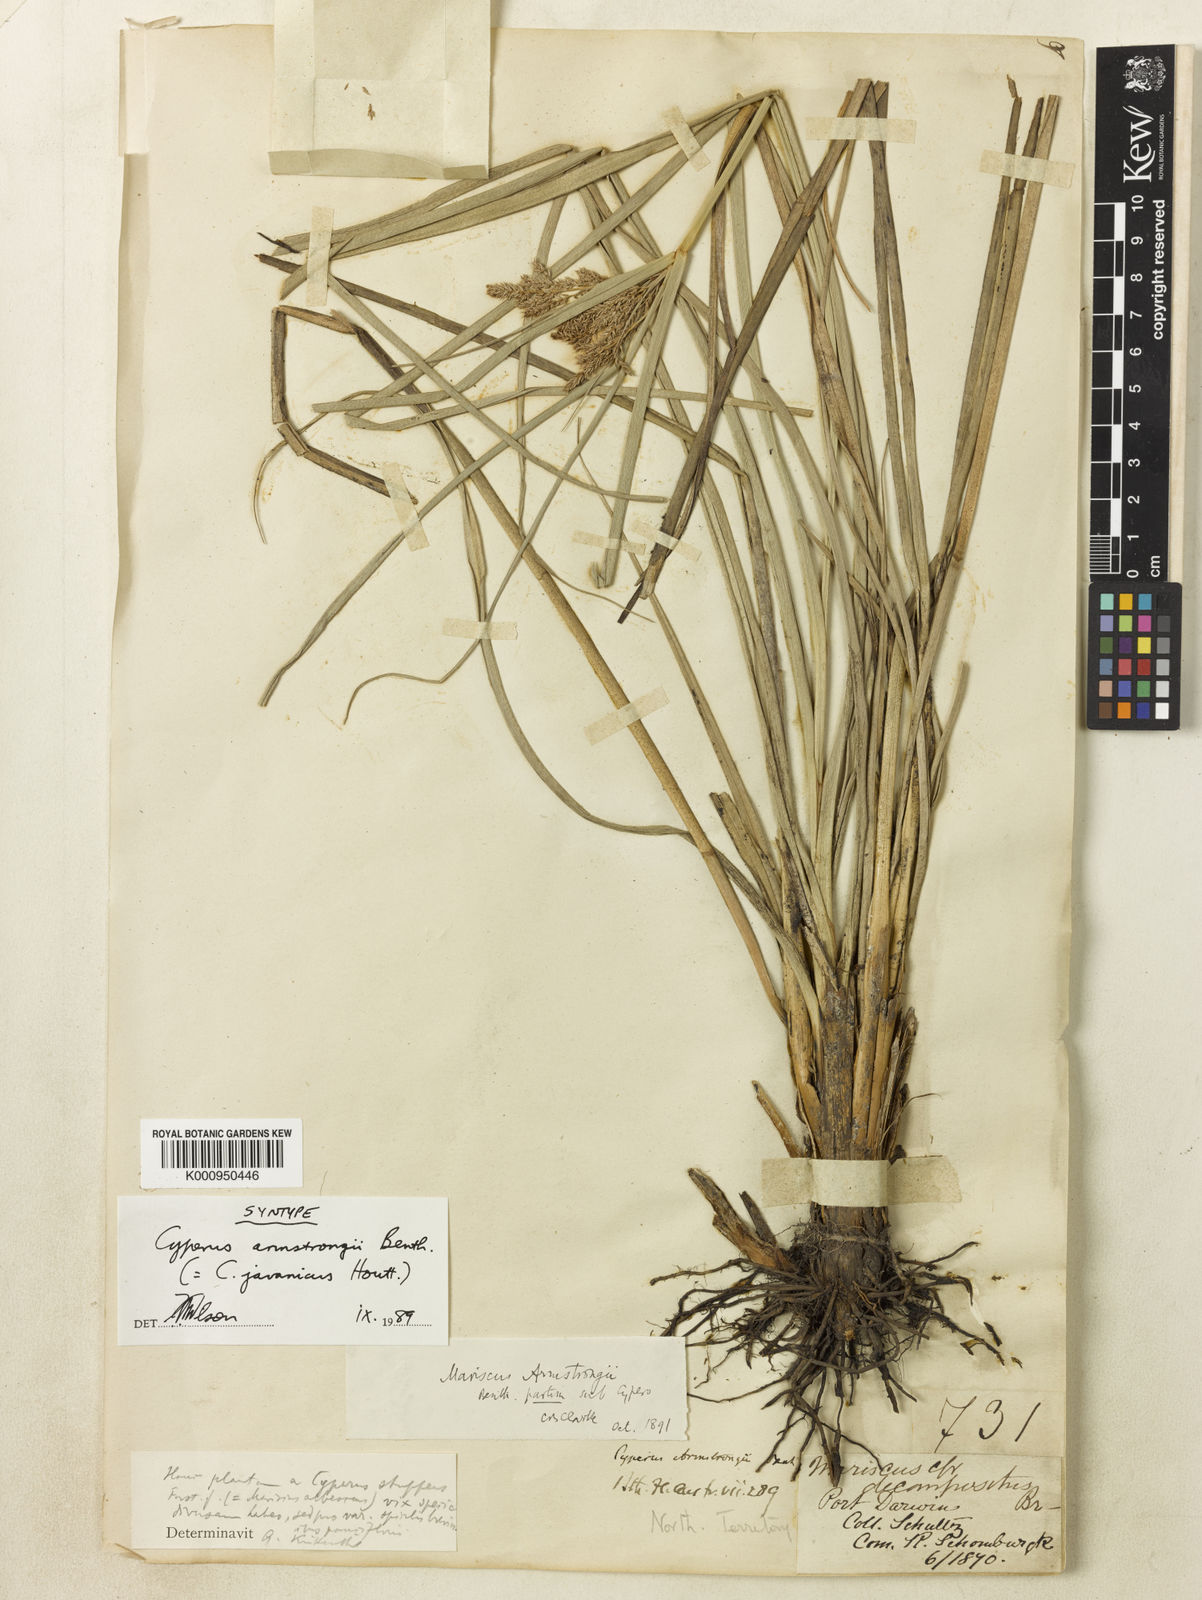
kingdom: Plantae
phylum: Tracheophyta
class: Liliopsida
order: Poales
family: Cyperaceae
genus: Cyperus
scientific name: Cyperus javanicus
